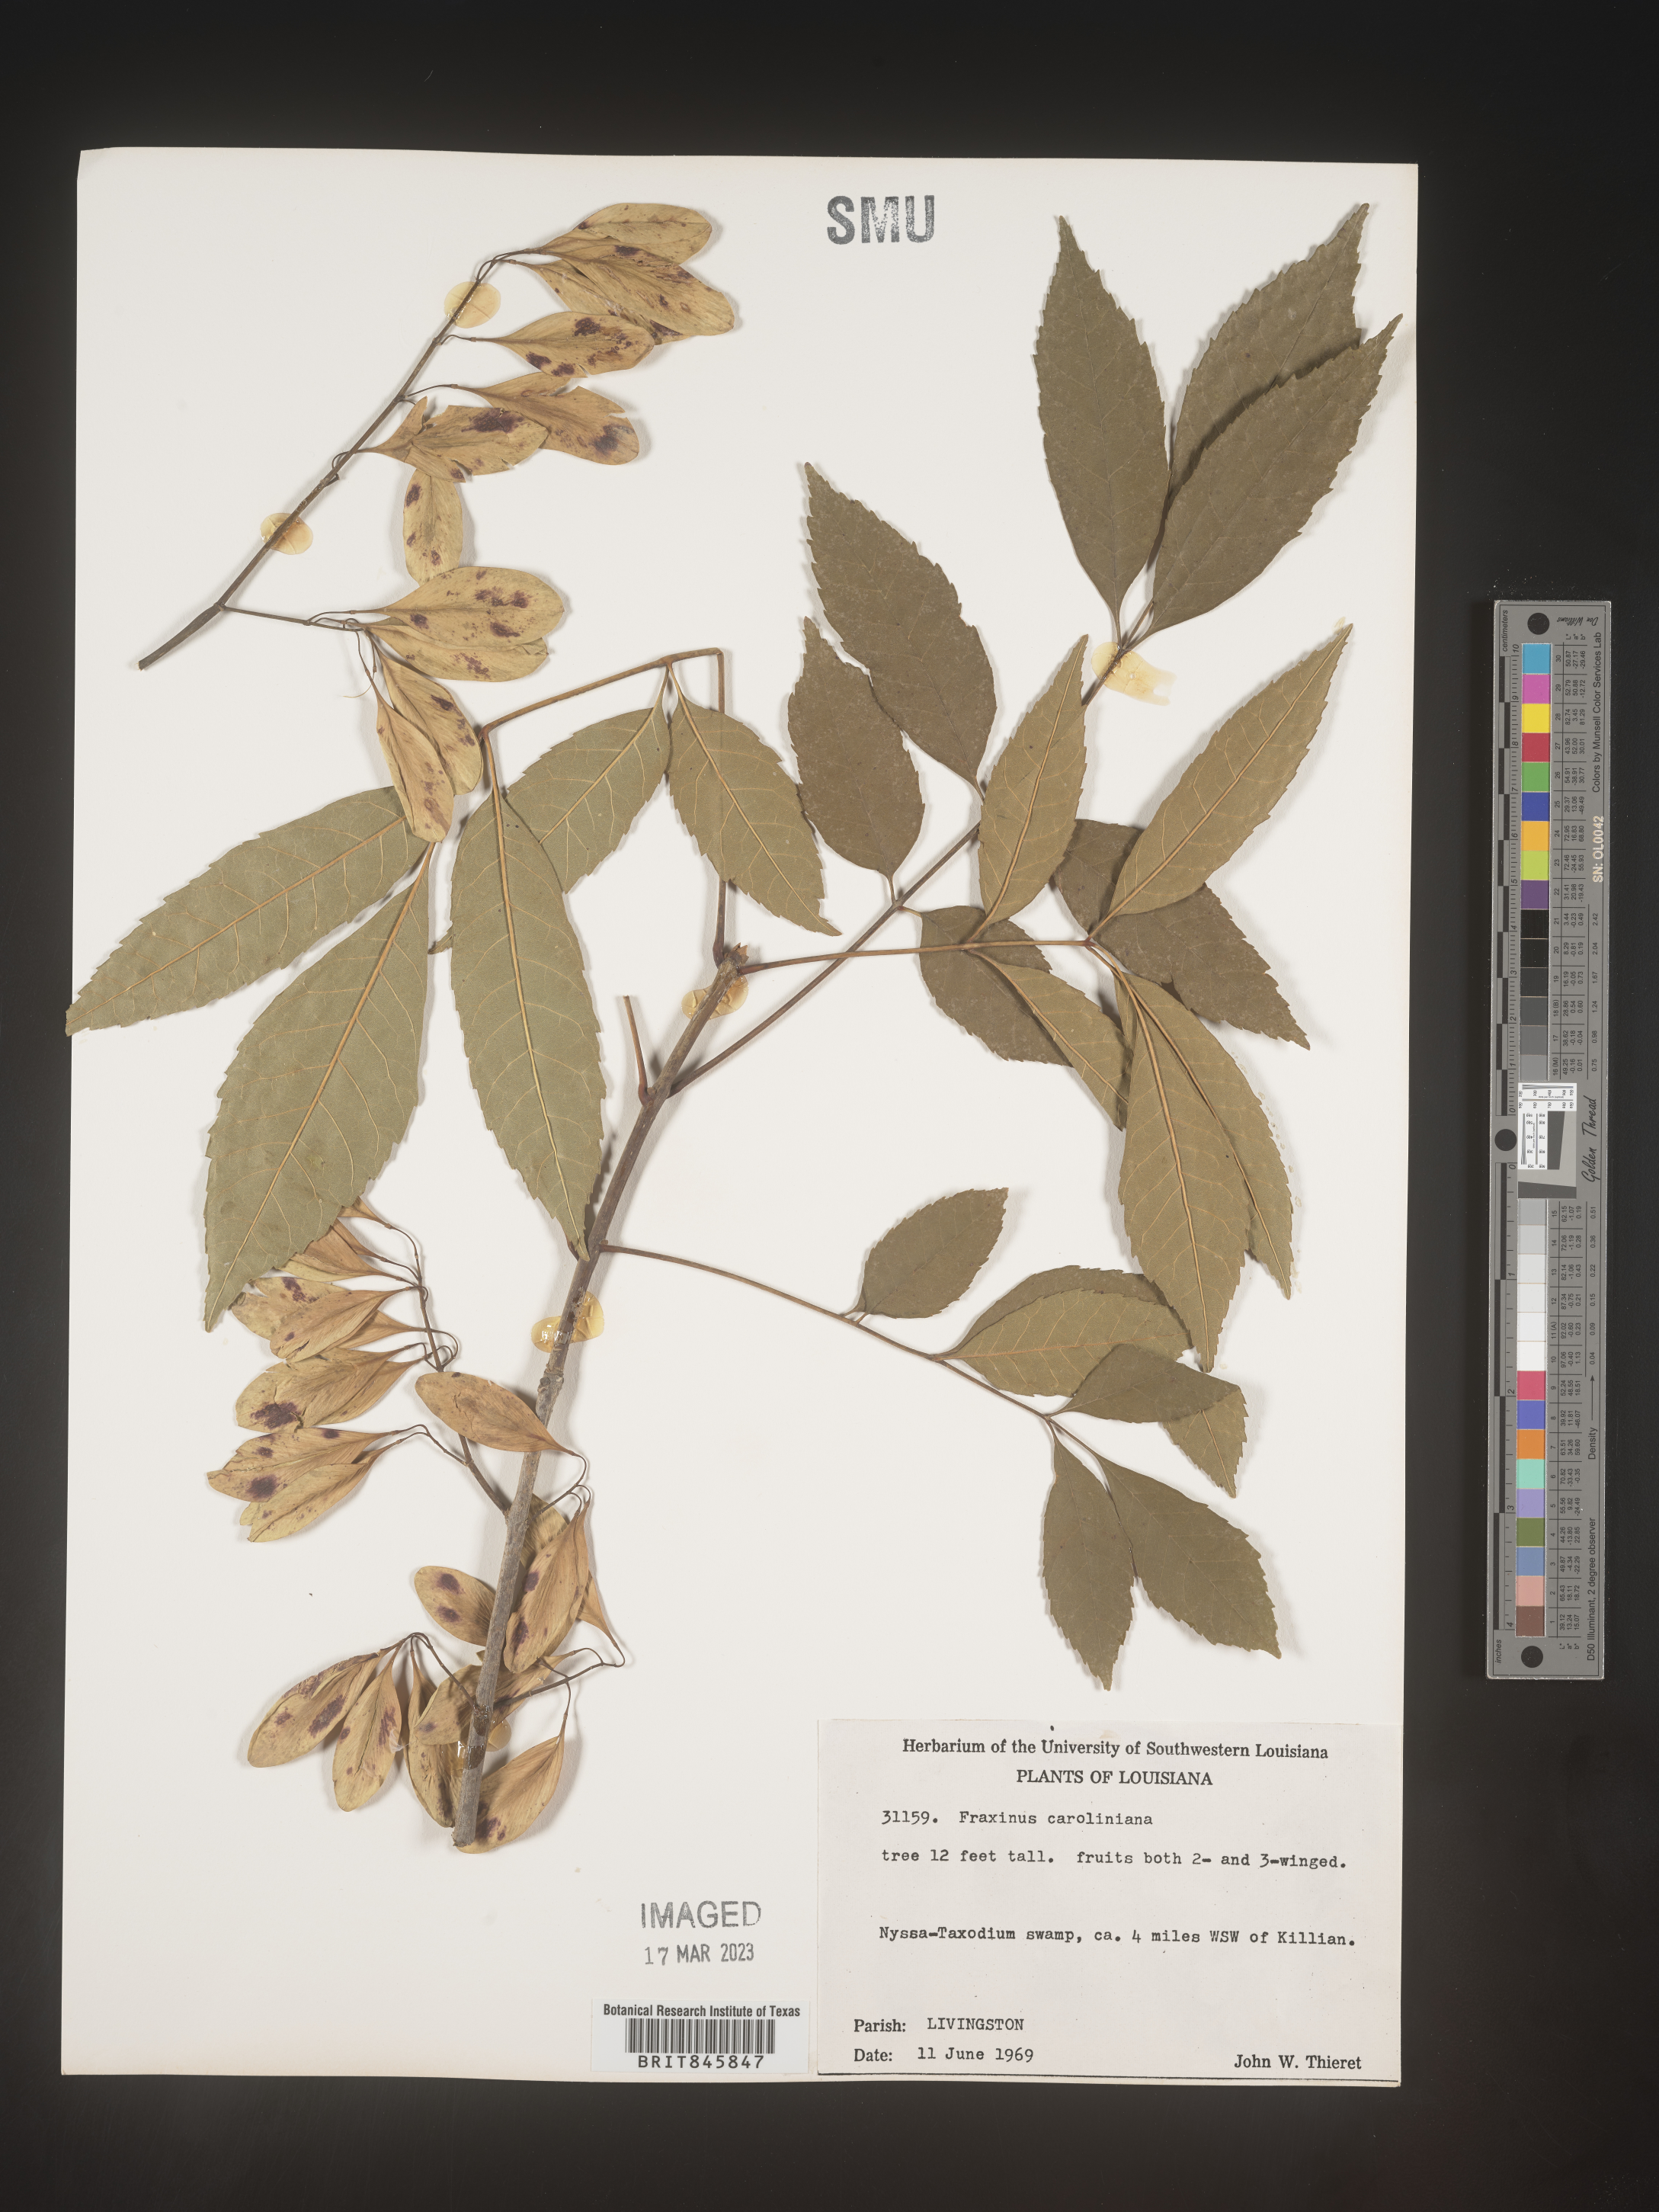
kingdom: Plantae
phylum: Tracheophyta
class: Magnoliopsida
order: Lamiales
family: Oleaceae
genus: Fraxinus
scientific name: Fraxinus caroliniana
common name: Carolina ash
